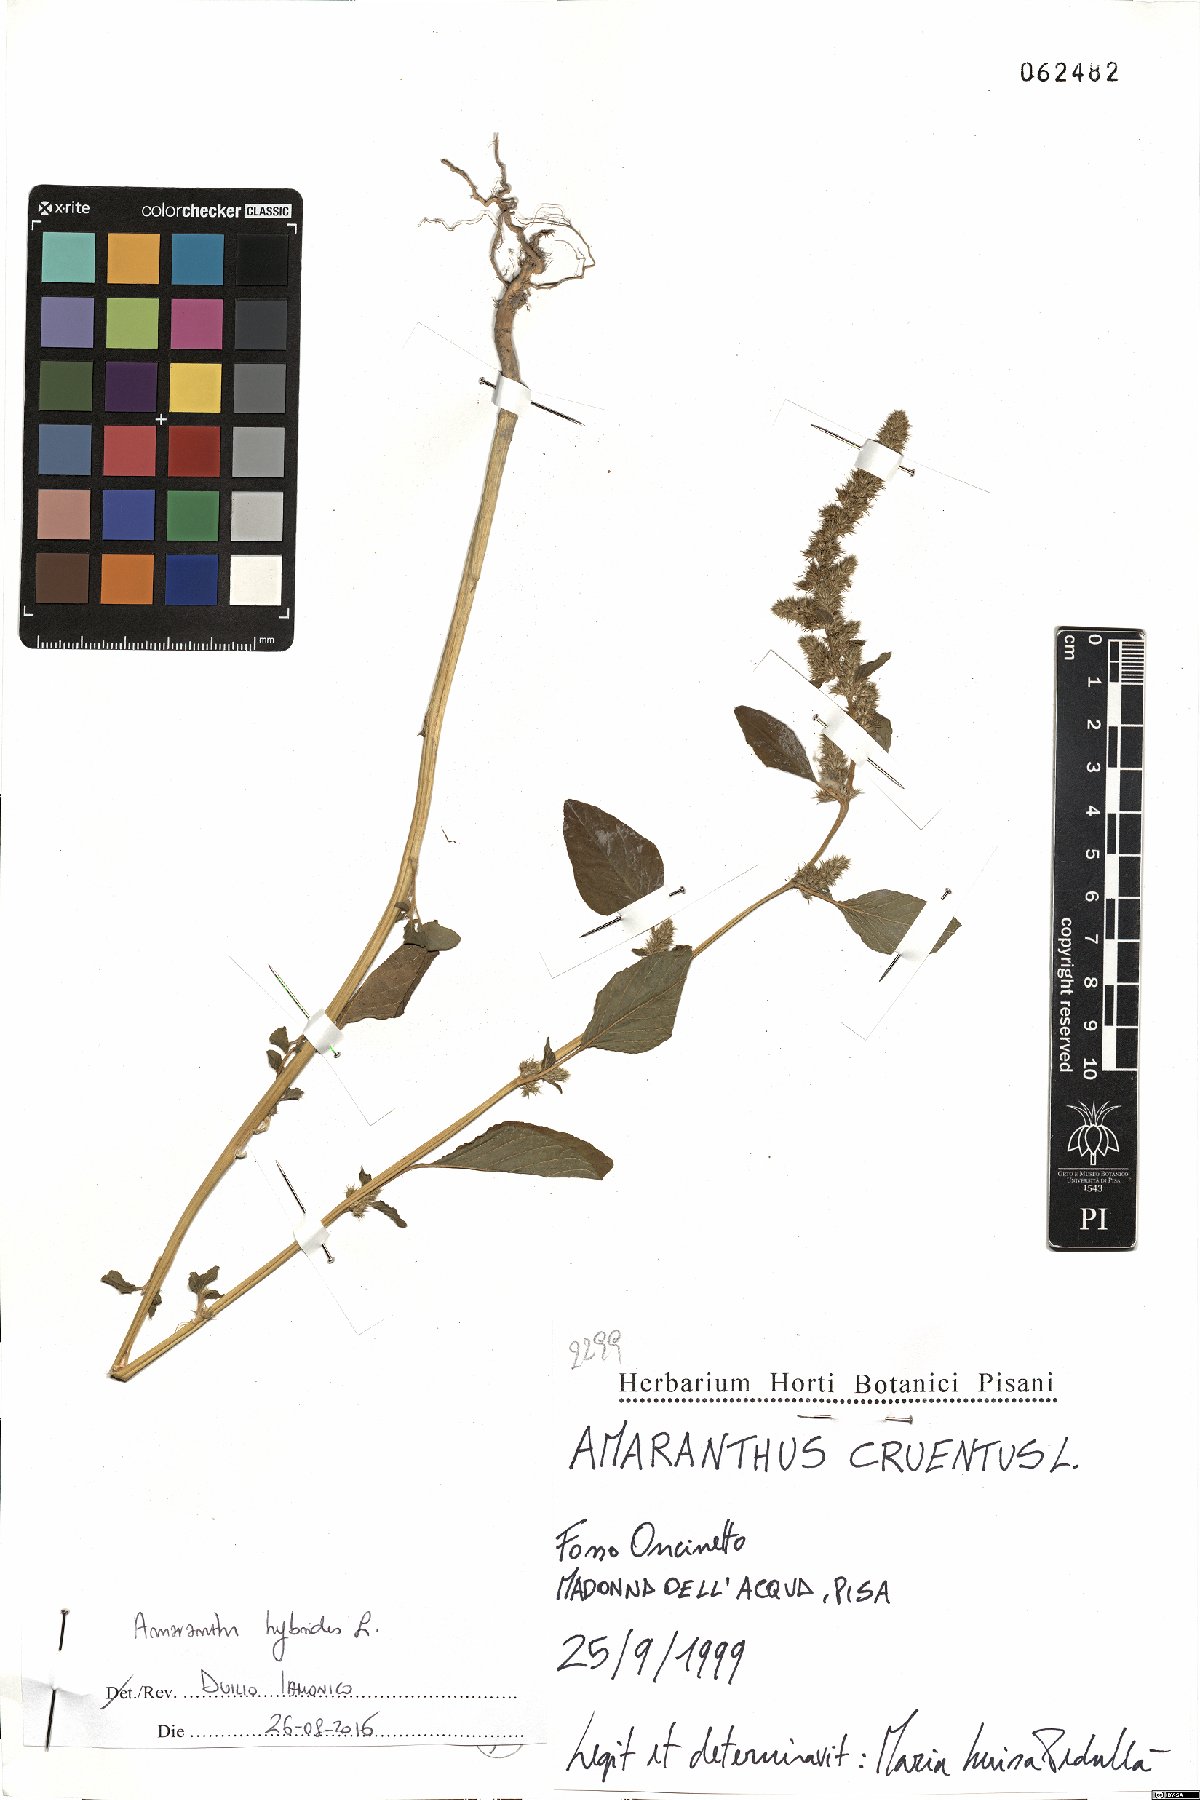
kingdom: Plantae
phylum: Tracheophyta
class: Magnoliopsida
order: Caryophyllales
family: Amaranthaceae
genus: Amaranthus
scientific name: Amaranthus hybridus
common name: Green amaranth
